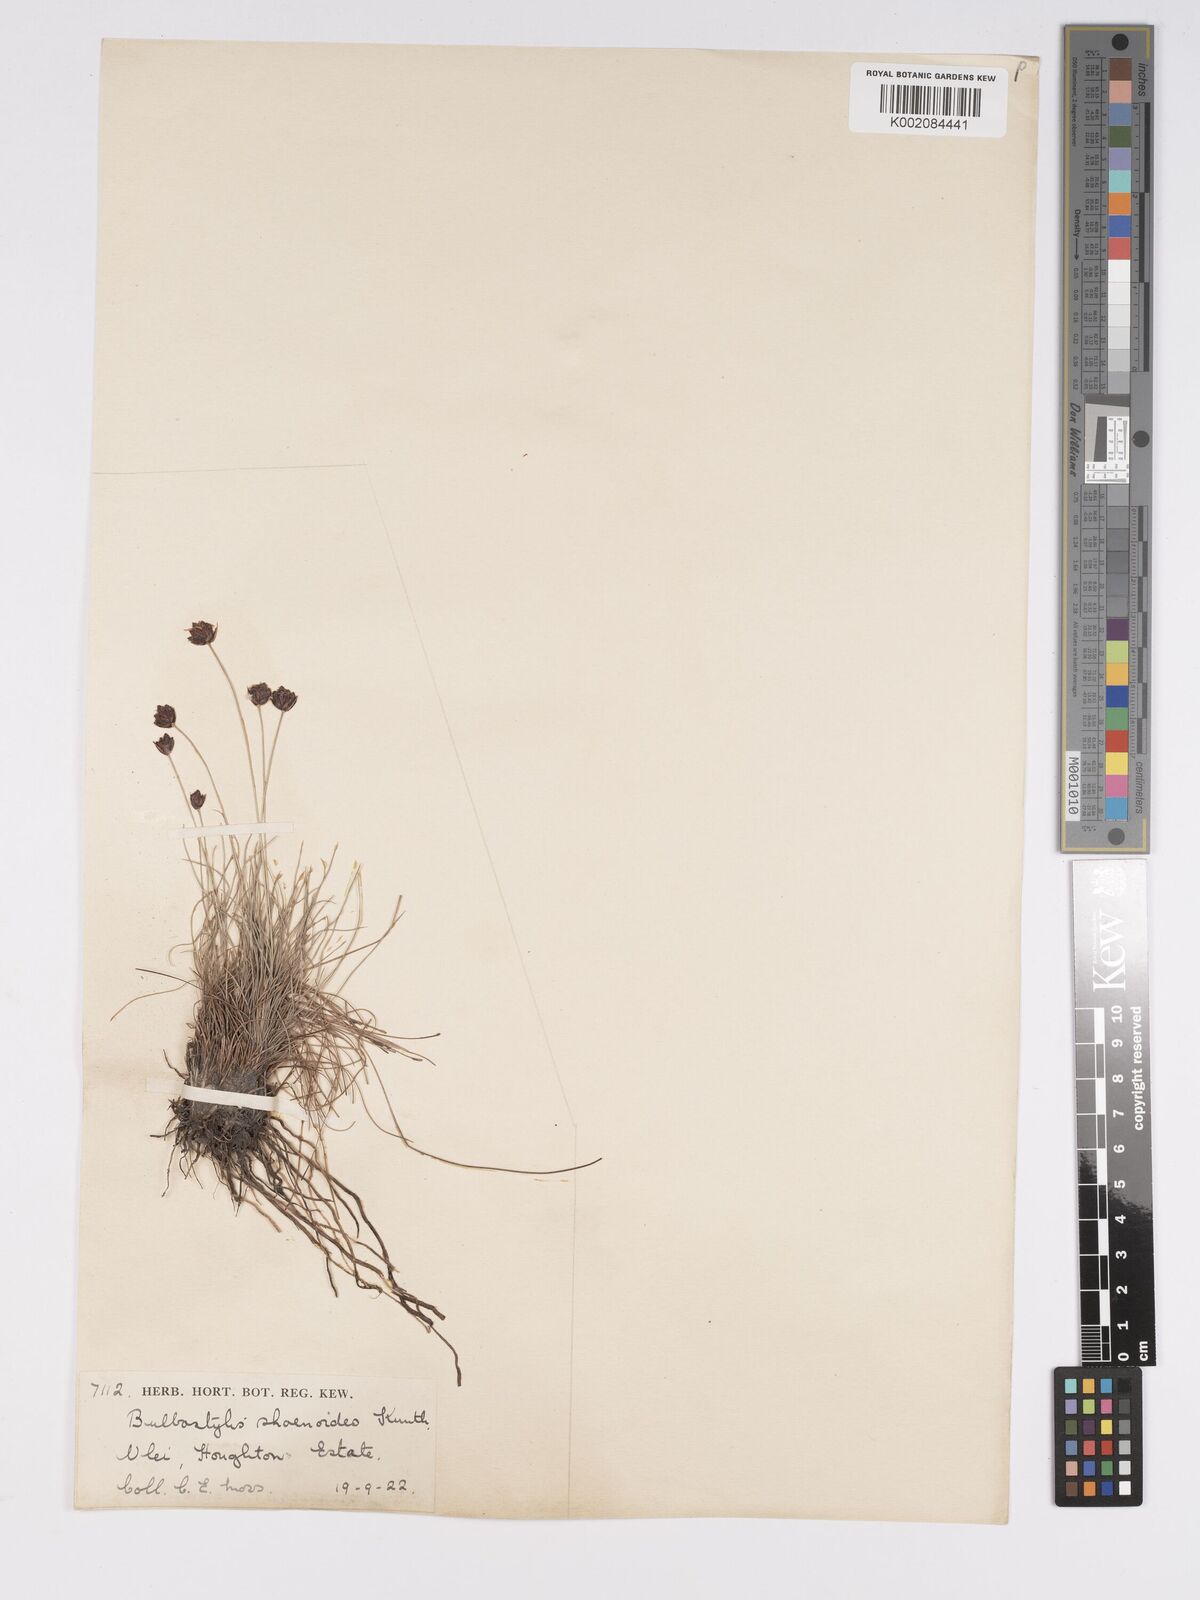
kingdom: Plantae
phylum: Tracheophyta
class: Liliopsida
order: Poales
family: Cyperaceae
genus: Bulbostylis
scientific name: Bulbostylis schoenoides
